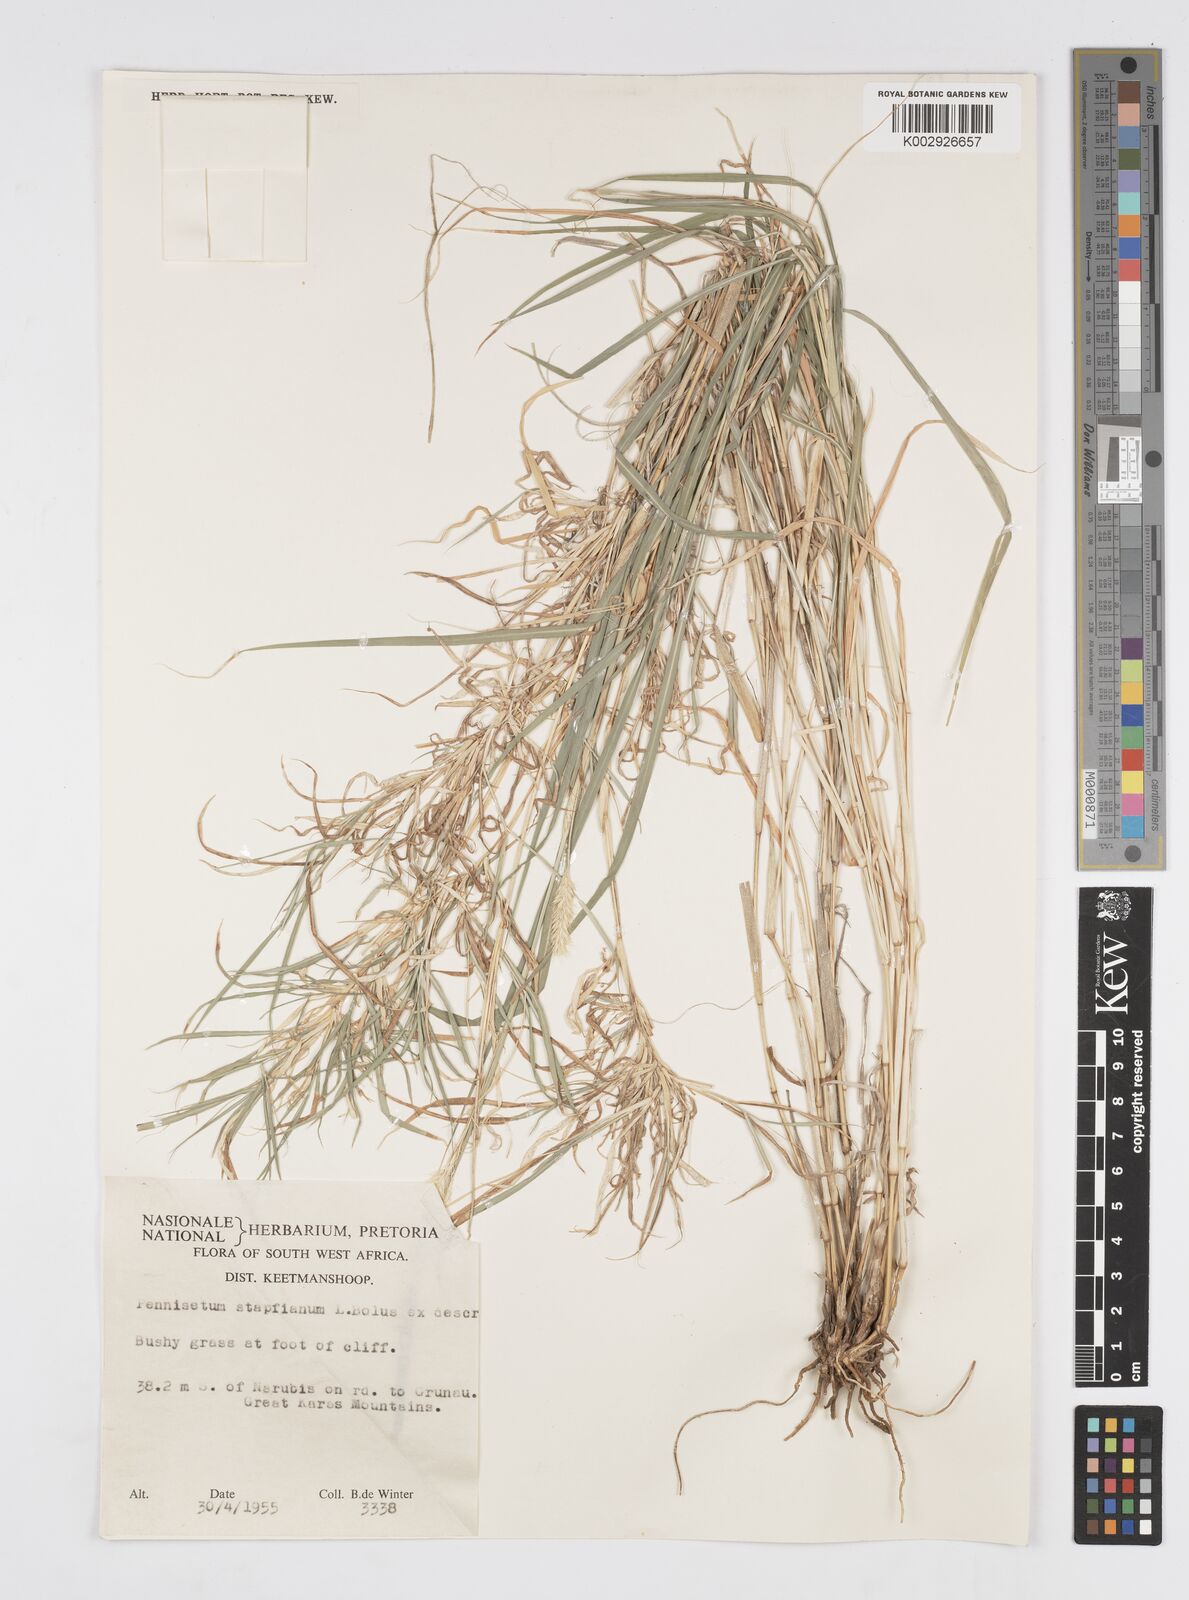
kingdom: Plantae
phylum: Tracheophyta
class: Liliopsida
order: Poales
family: Poaceae
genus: Cenchrus
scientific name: Cenchrus mezianus
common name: Bamboo grass
